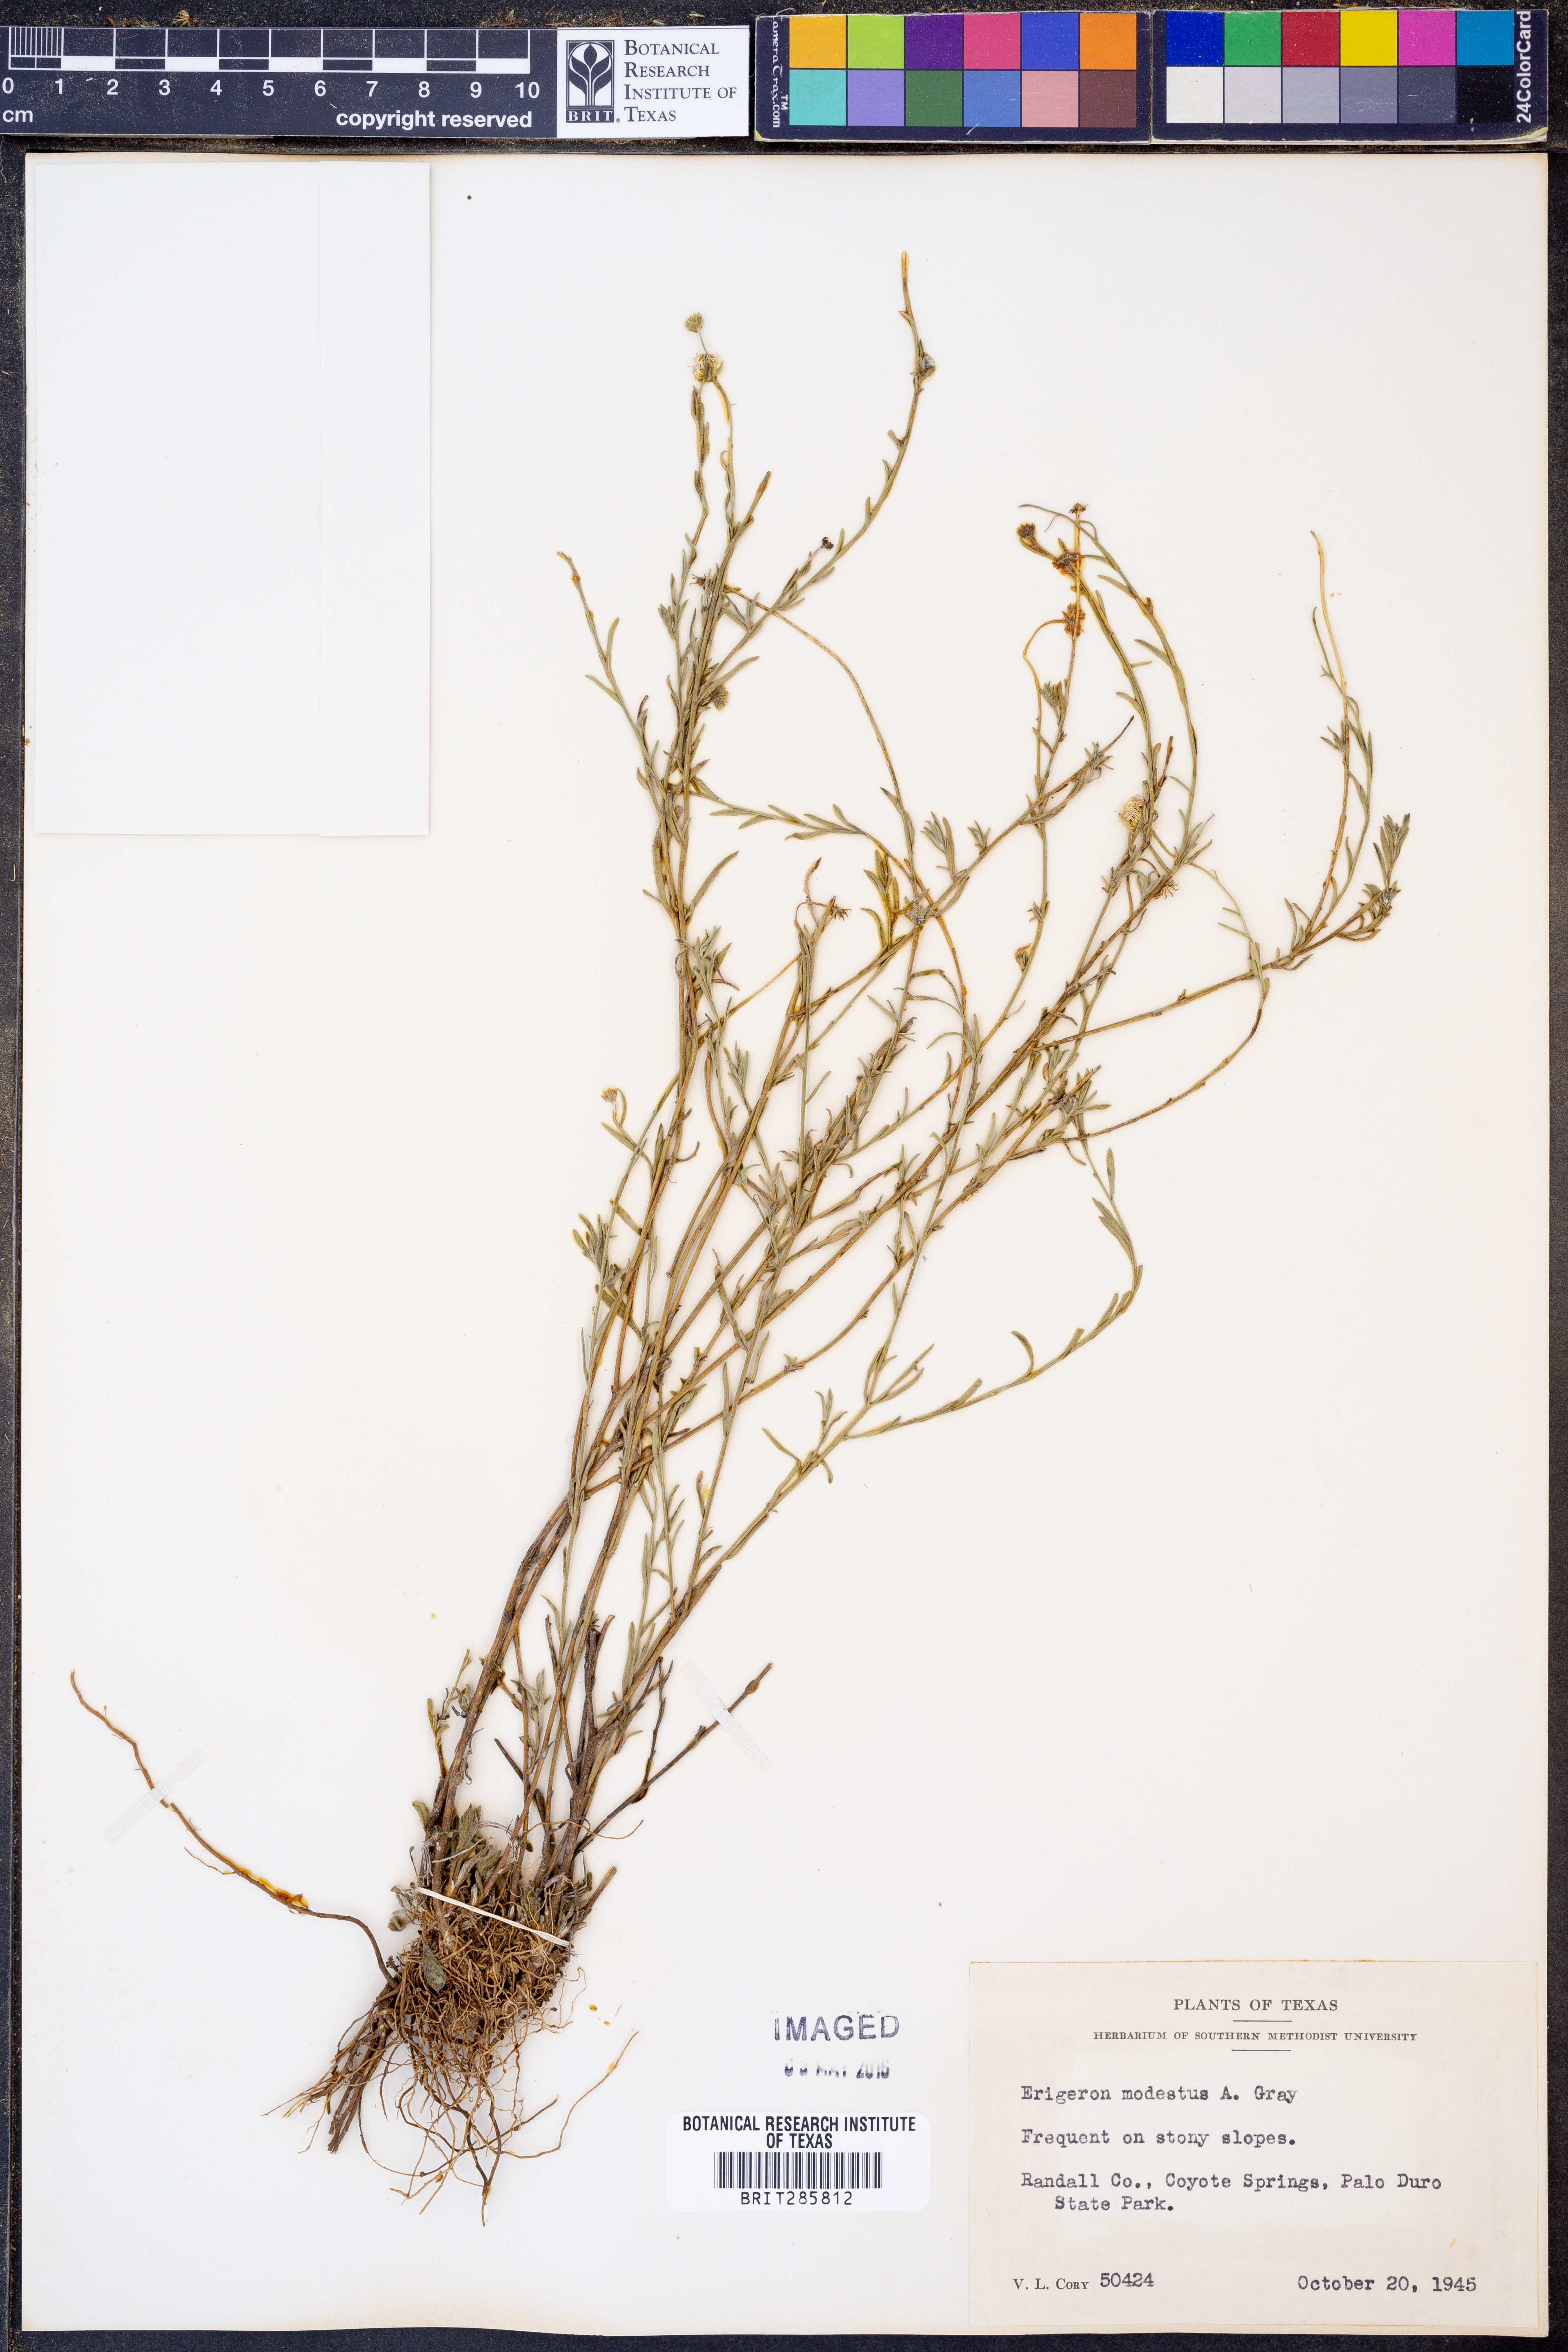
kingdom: Plantae
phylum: Tracheophyta
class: Magnoliopsida
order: Asterales
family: Asteraceae
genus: Erigeron
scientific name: Erigeron modestus
